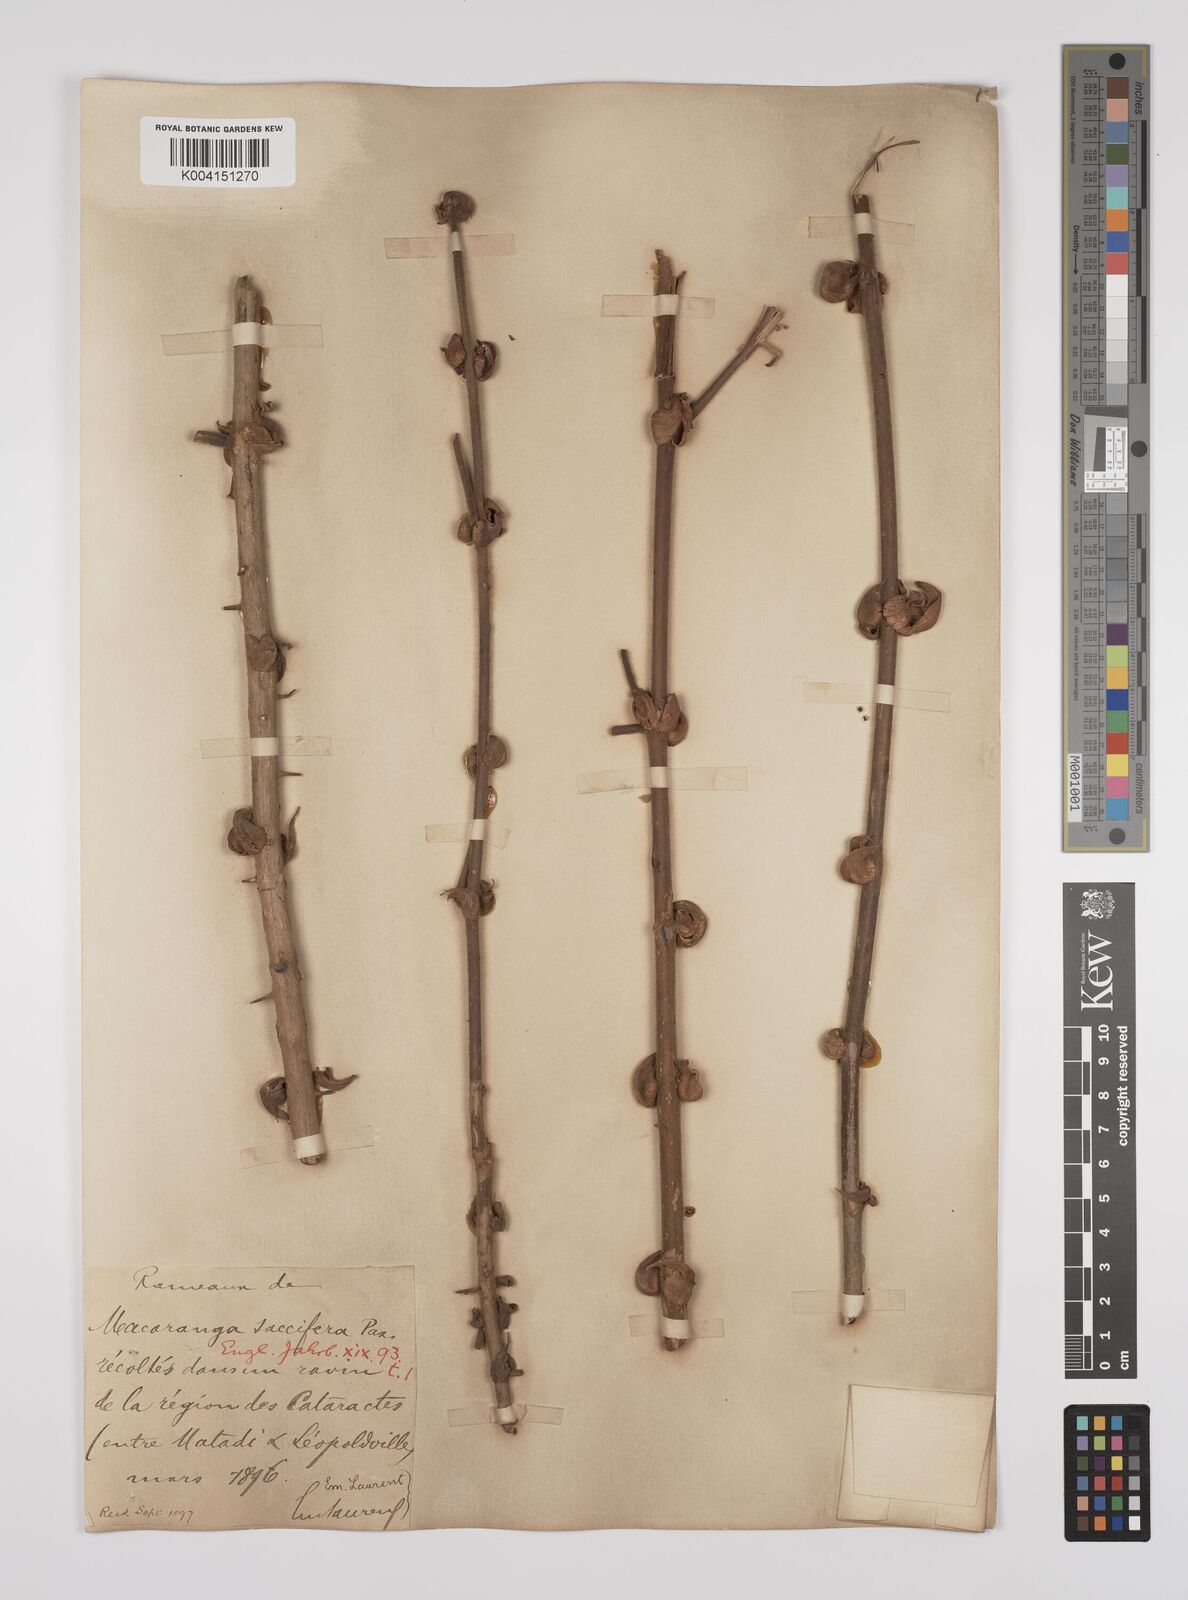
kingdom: Plantae
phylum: Tracheophyta
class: Magnoliopsida
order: Malpighiales
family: Euphorbiaceae
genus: Macaranga
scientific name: Macaranga saccifera
